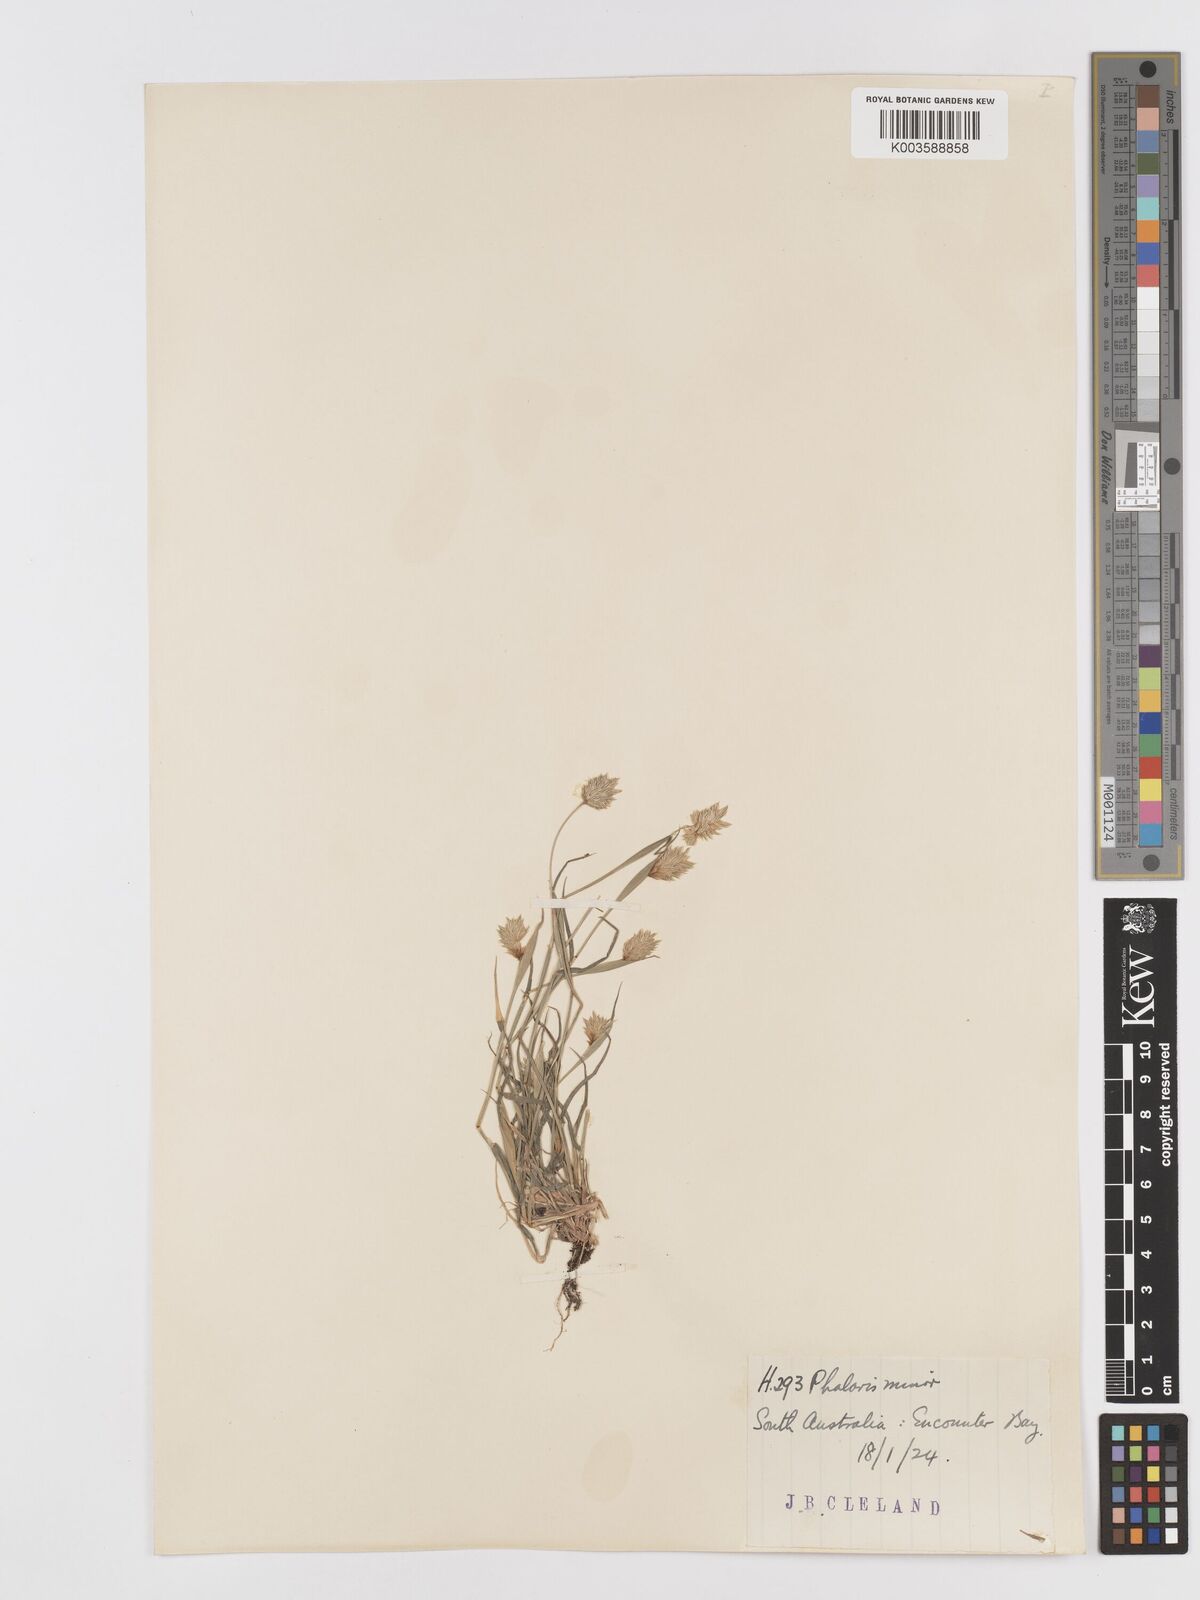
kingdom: Plantae
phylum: Tracheophyta
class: Liliopsida
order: Poales
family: Poaceae
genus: Phalaris
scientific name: Phalaris minor
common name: Littleseed canarygrass
